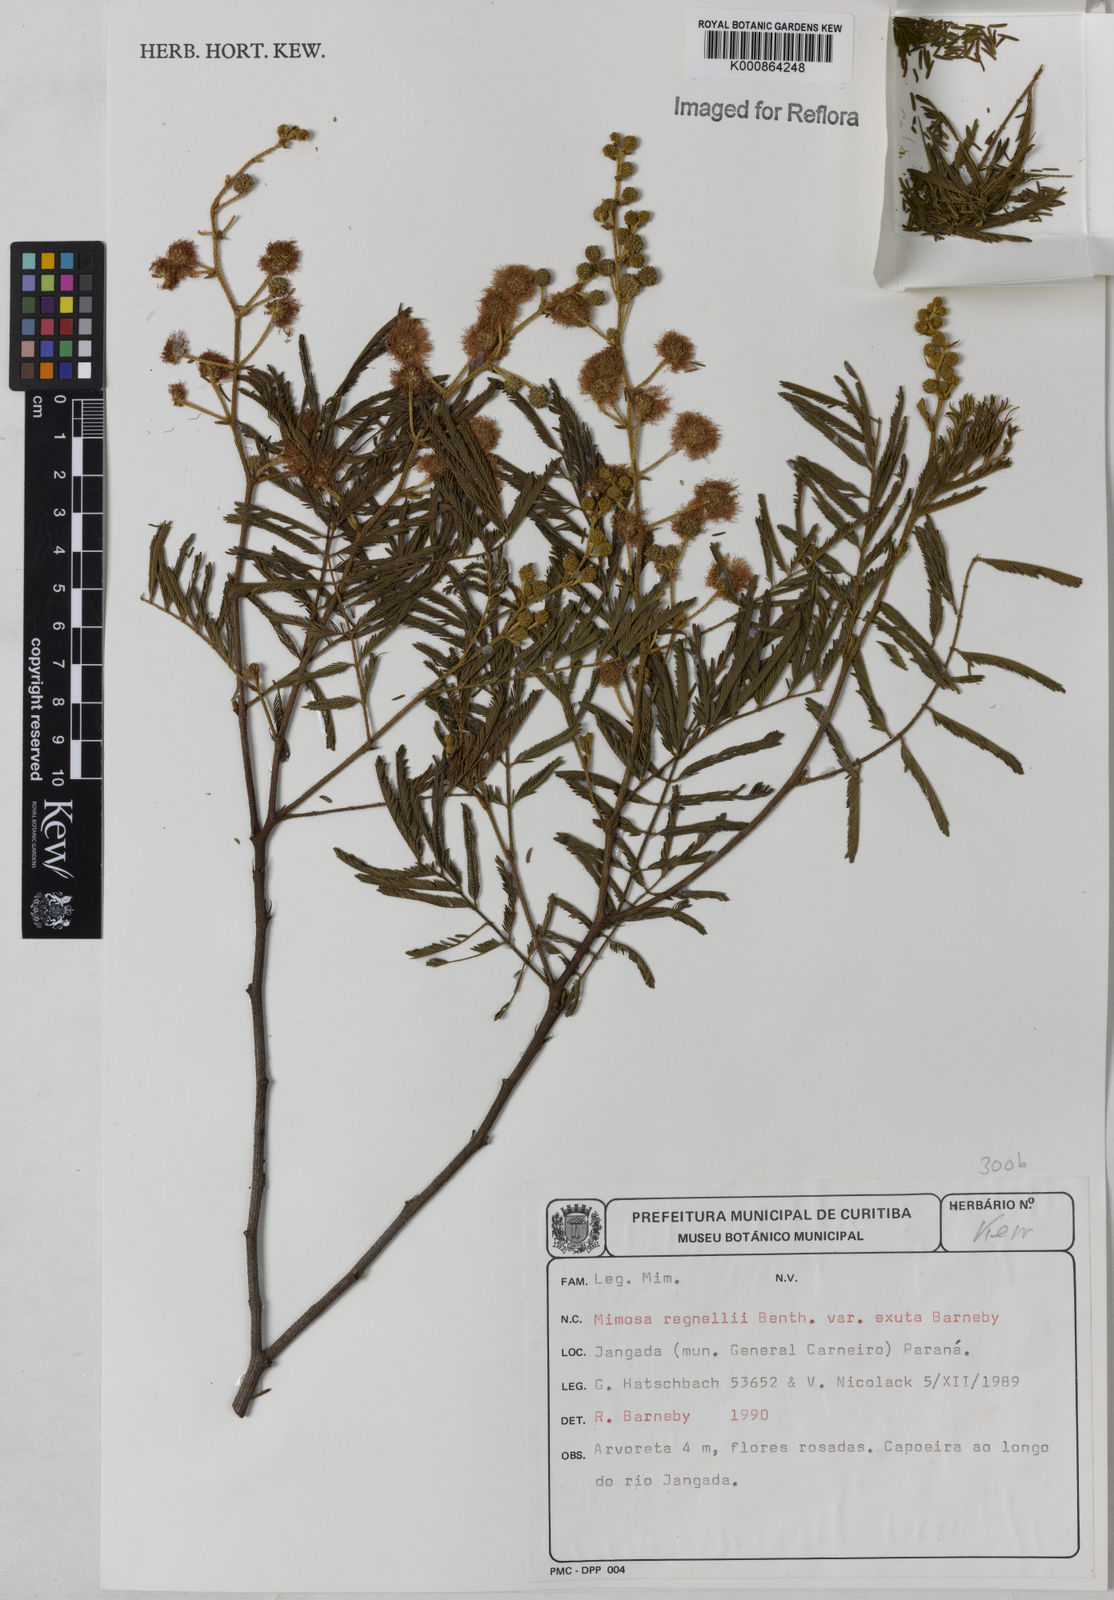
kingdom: Plantae
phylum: Tracheophyta
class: Magnoliopsida
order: Fabales
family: Fabaceae
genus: Mimosa
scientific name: Mimosa regnellii
